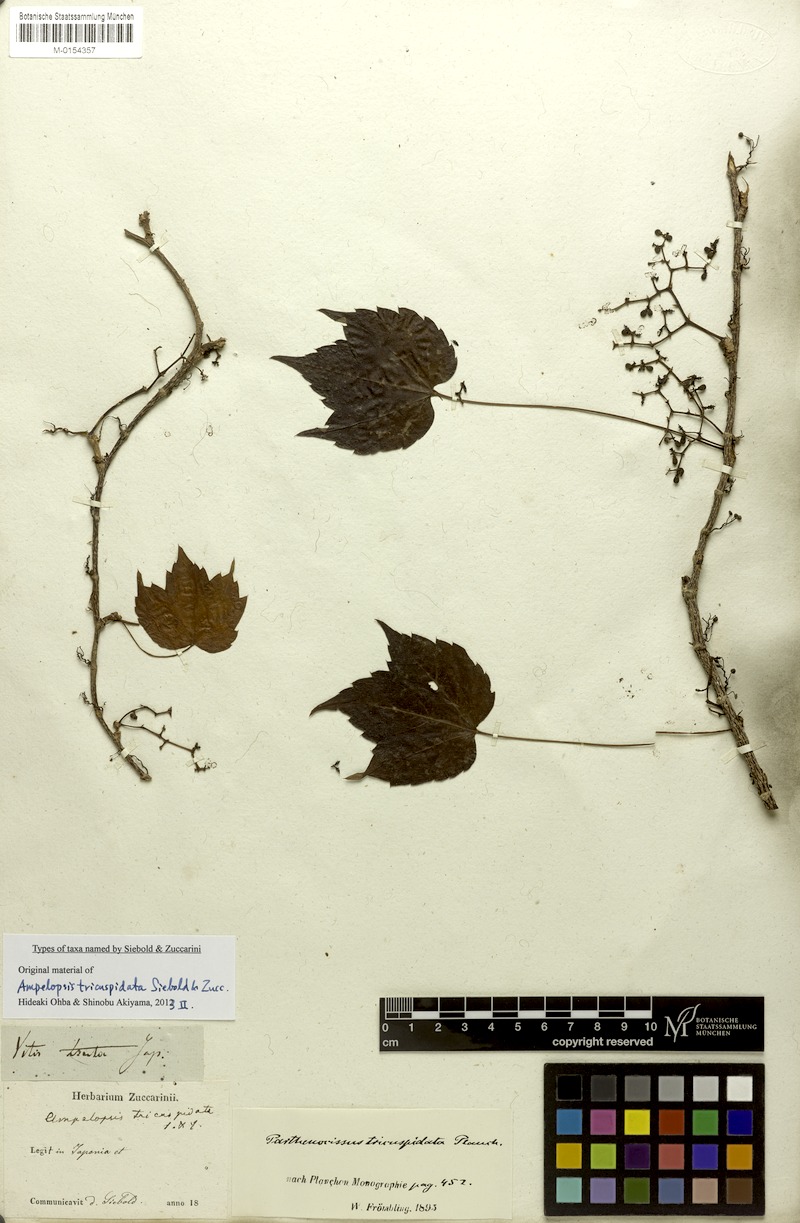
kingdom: Plantae
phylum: Tracheophyta
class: Magnoliopsida
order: Vitales
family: Vitaceae
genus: Parthenocissus
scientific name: Parthenocissus tricuspidata
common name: Boston ivy
